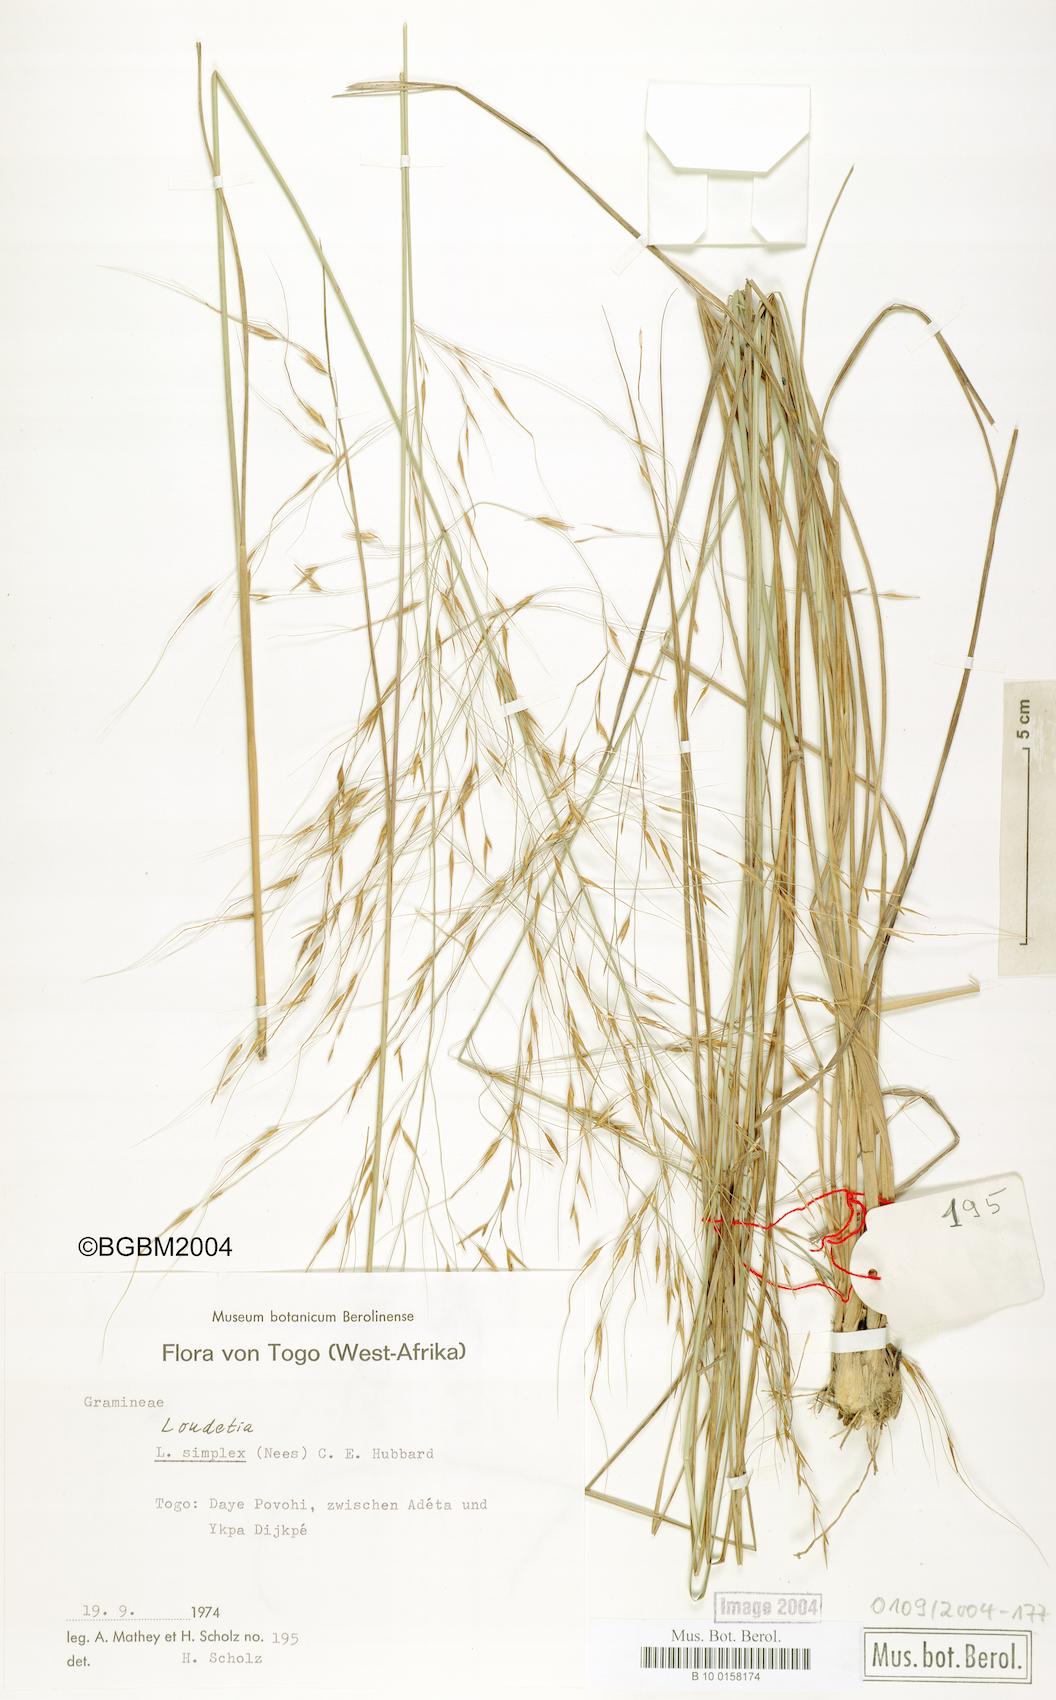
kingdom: Plantae
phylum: Tracheophyta
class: Liliopsida
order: Poales
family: Poaceae
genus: Loudetia
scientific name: Loudetia simplex
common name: Common russet grass
